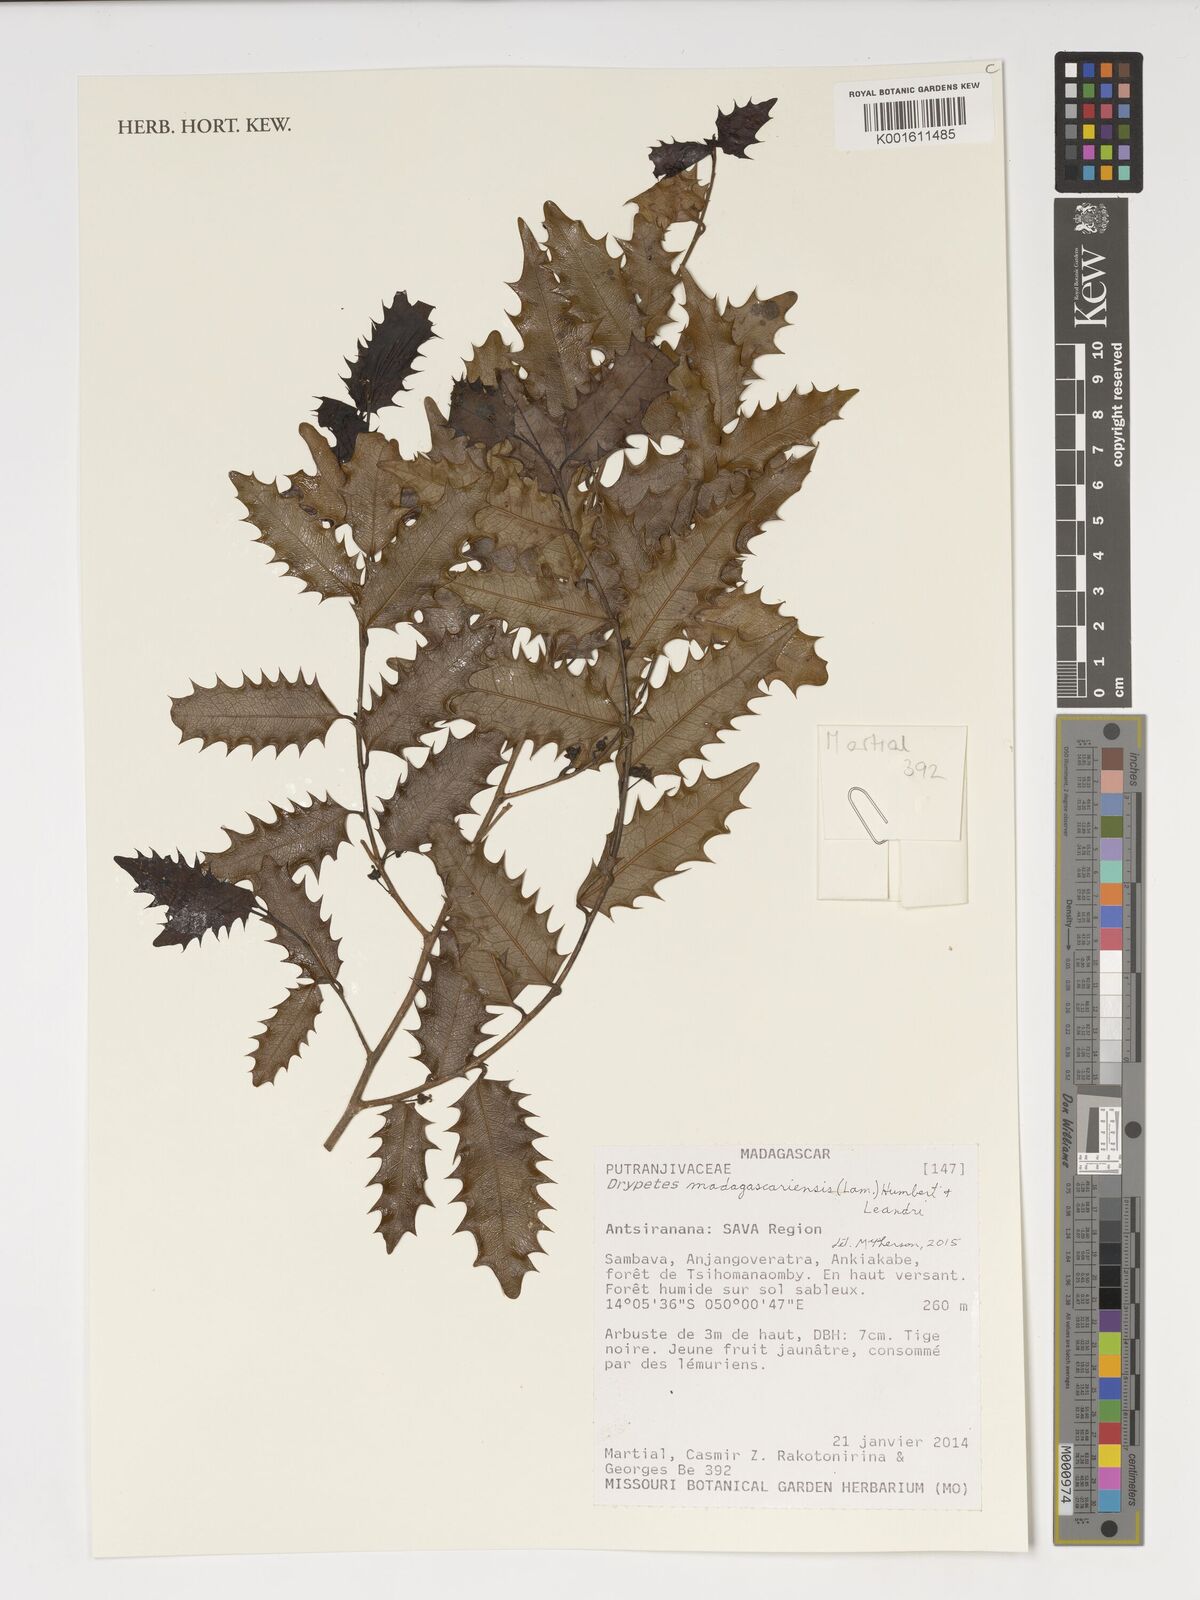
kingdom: Plantae
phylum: Tracheophyta
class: Magnoliopsida
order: Malpighiales
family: Putranjivaceae
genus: Drypetes
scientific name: Drypetes madagascariensis
